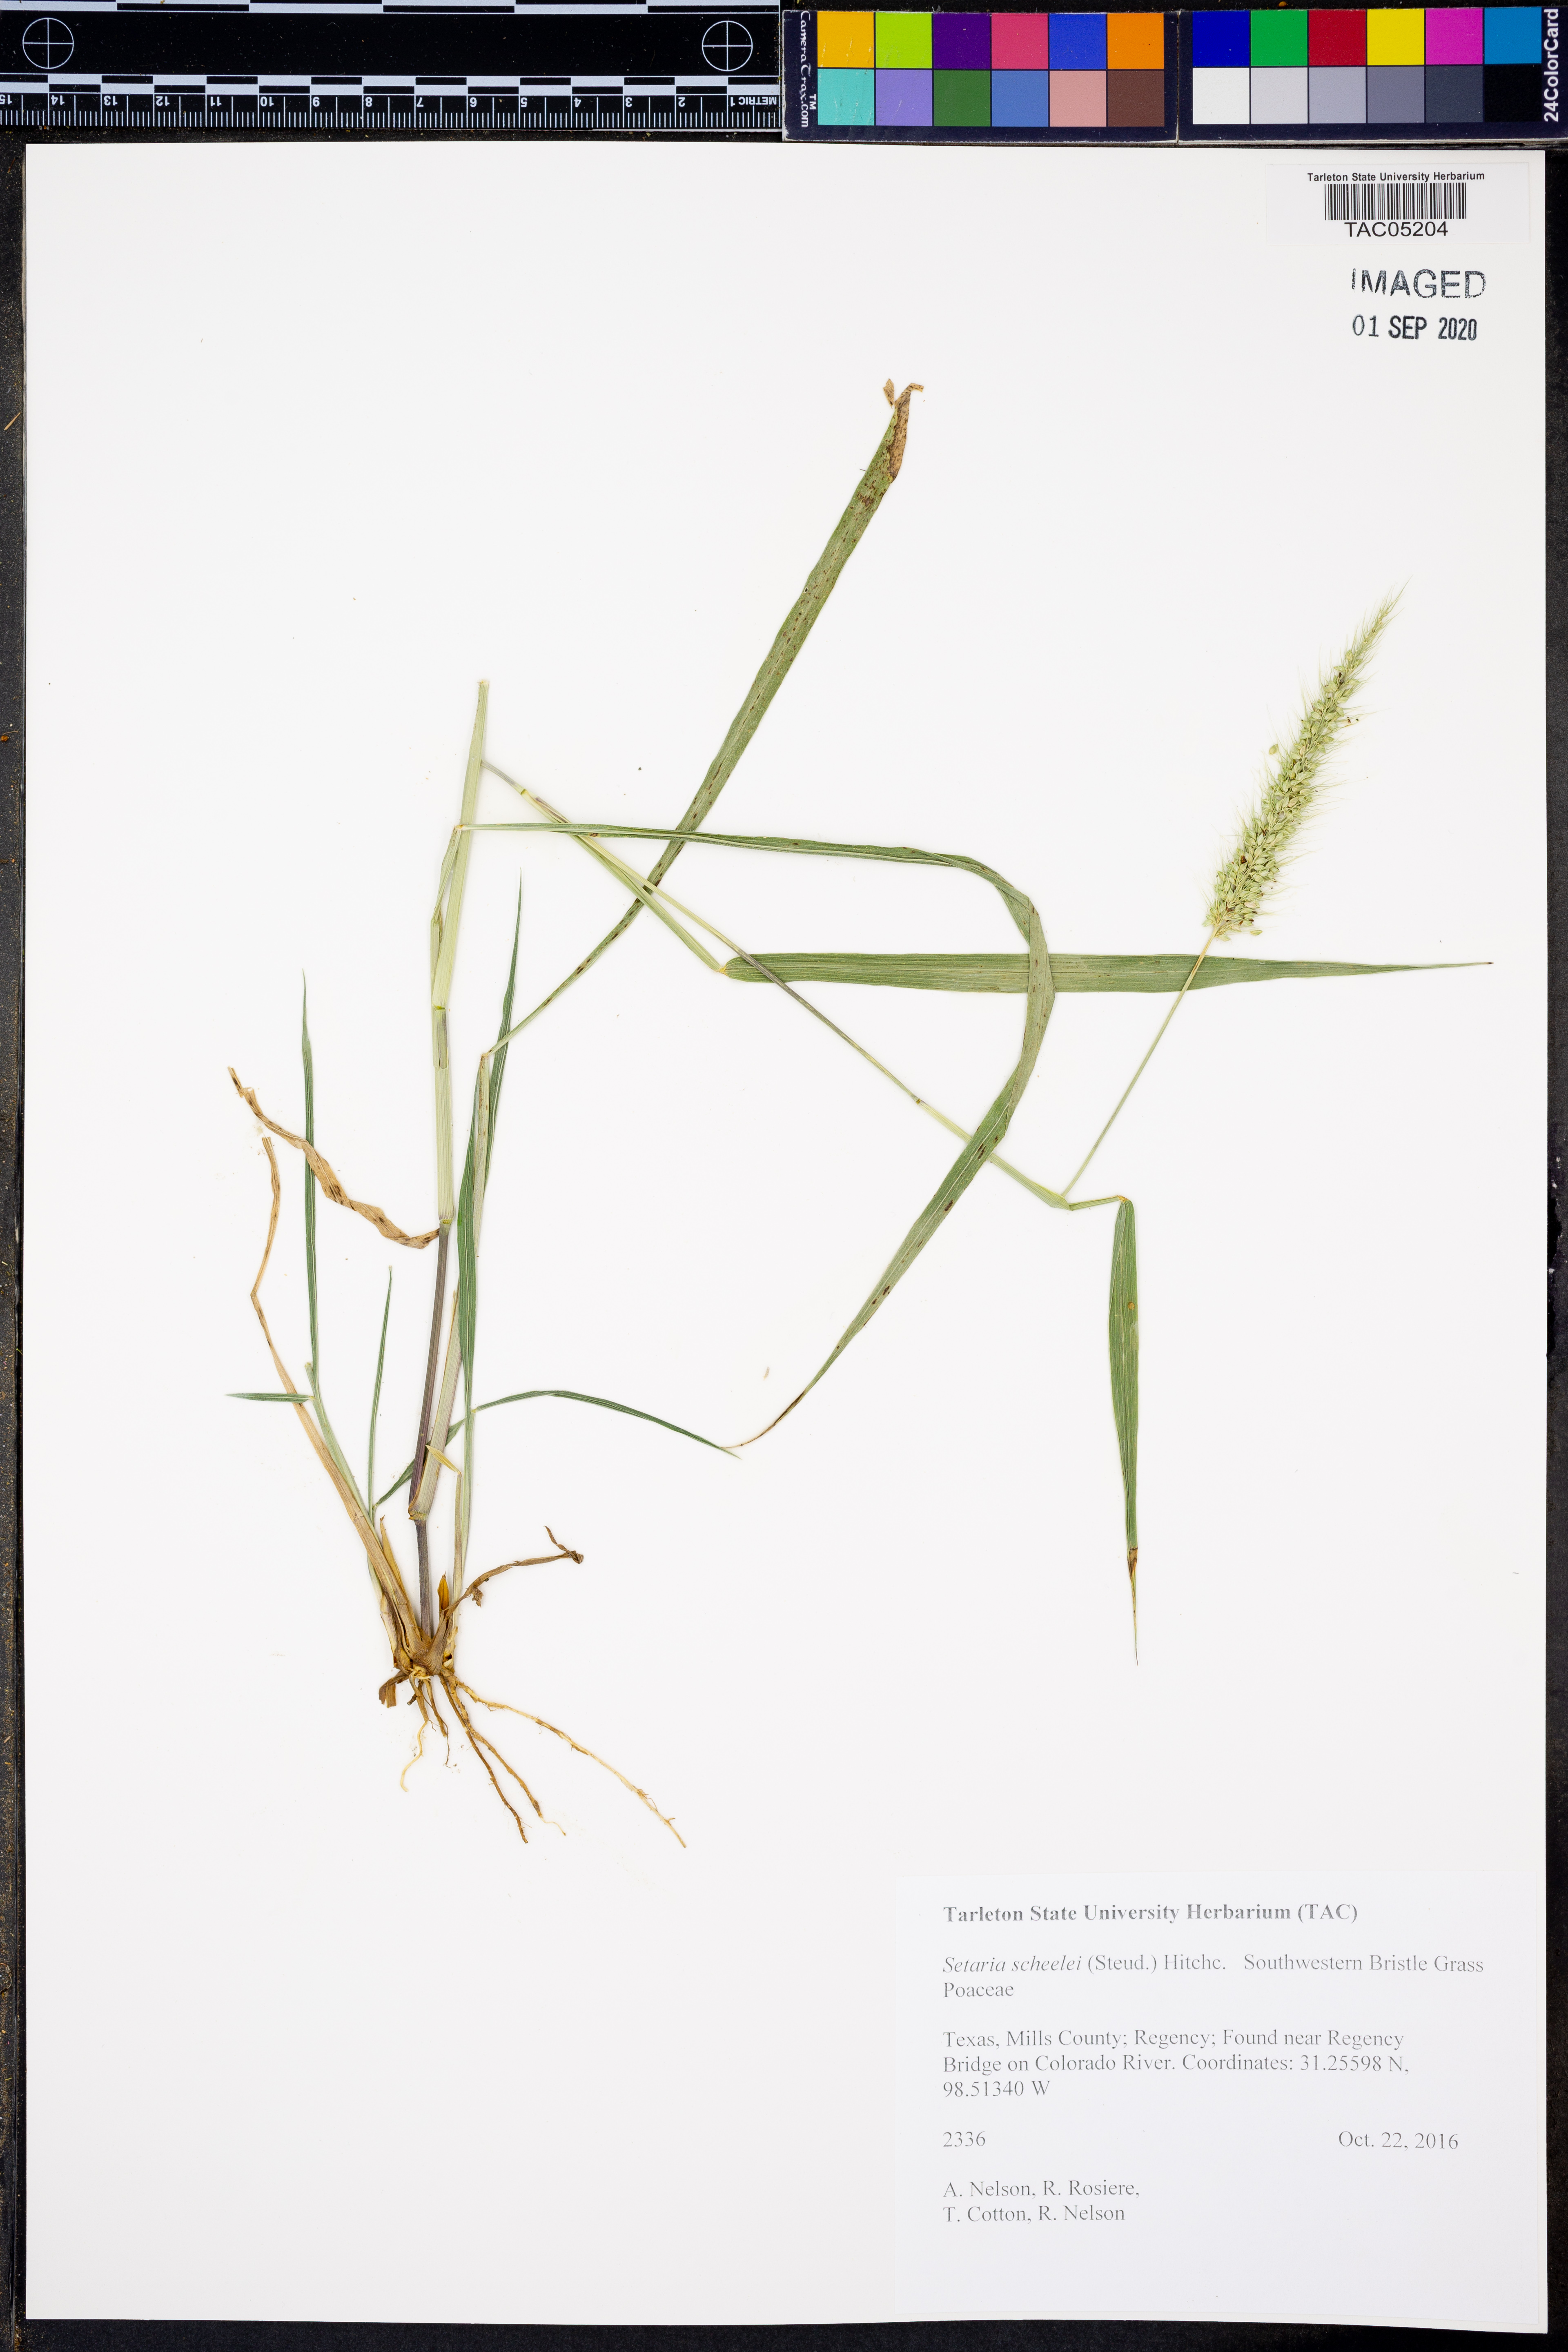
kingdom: Plantae
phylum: Tracheophyta
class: Liliopsida
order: Poales
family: Poaceae
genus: Setaria
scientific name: Setaria scheelei
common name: Southwestern bristle grass
